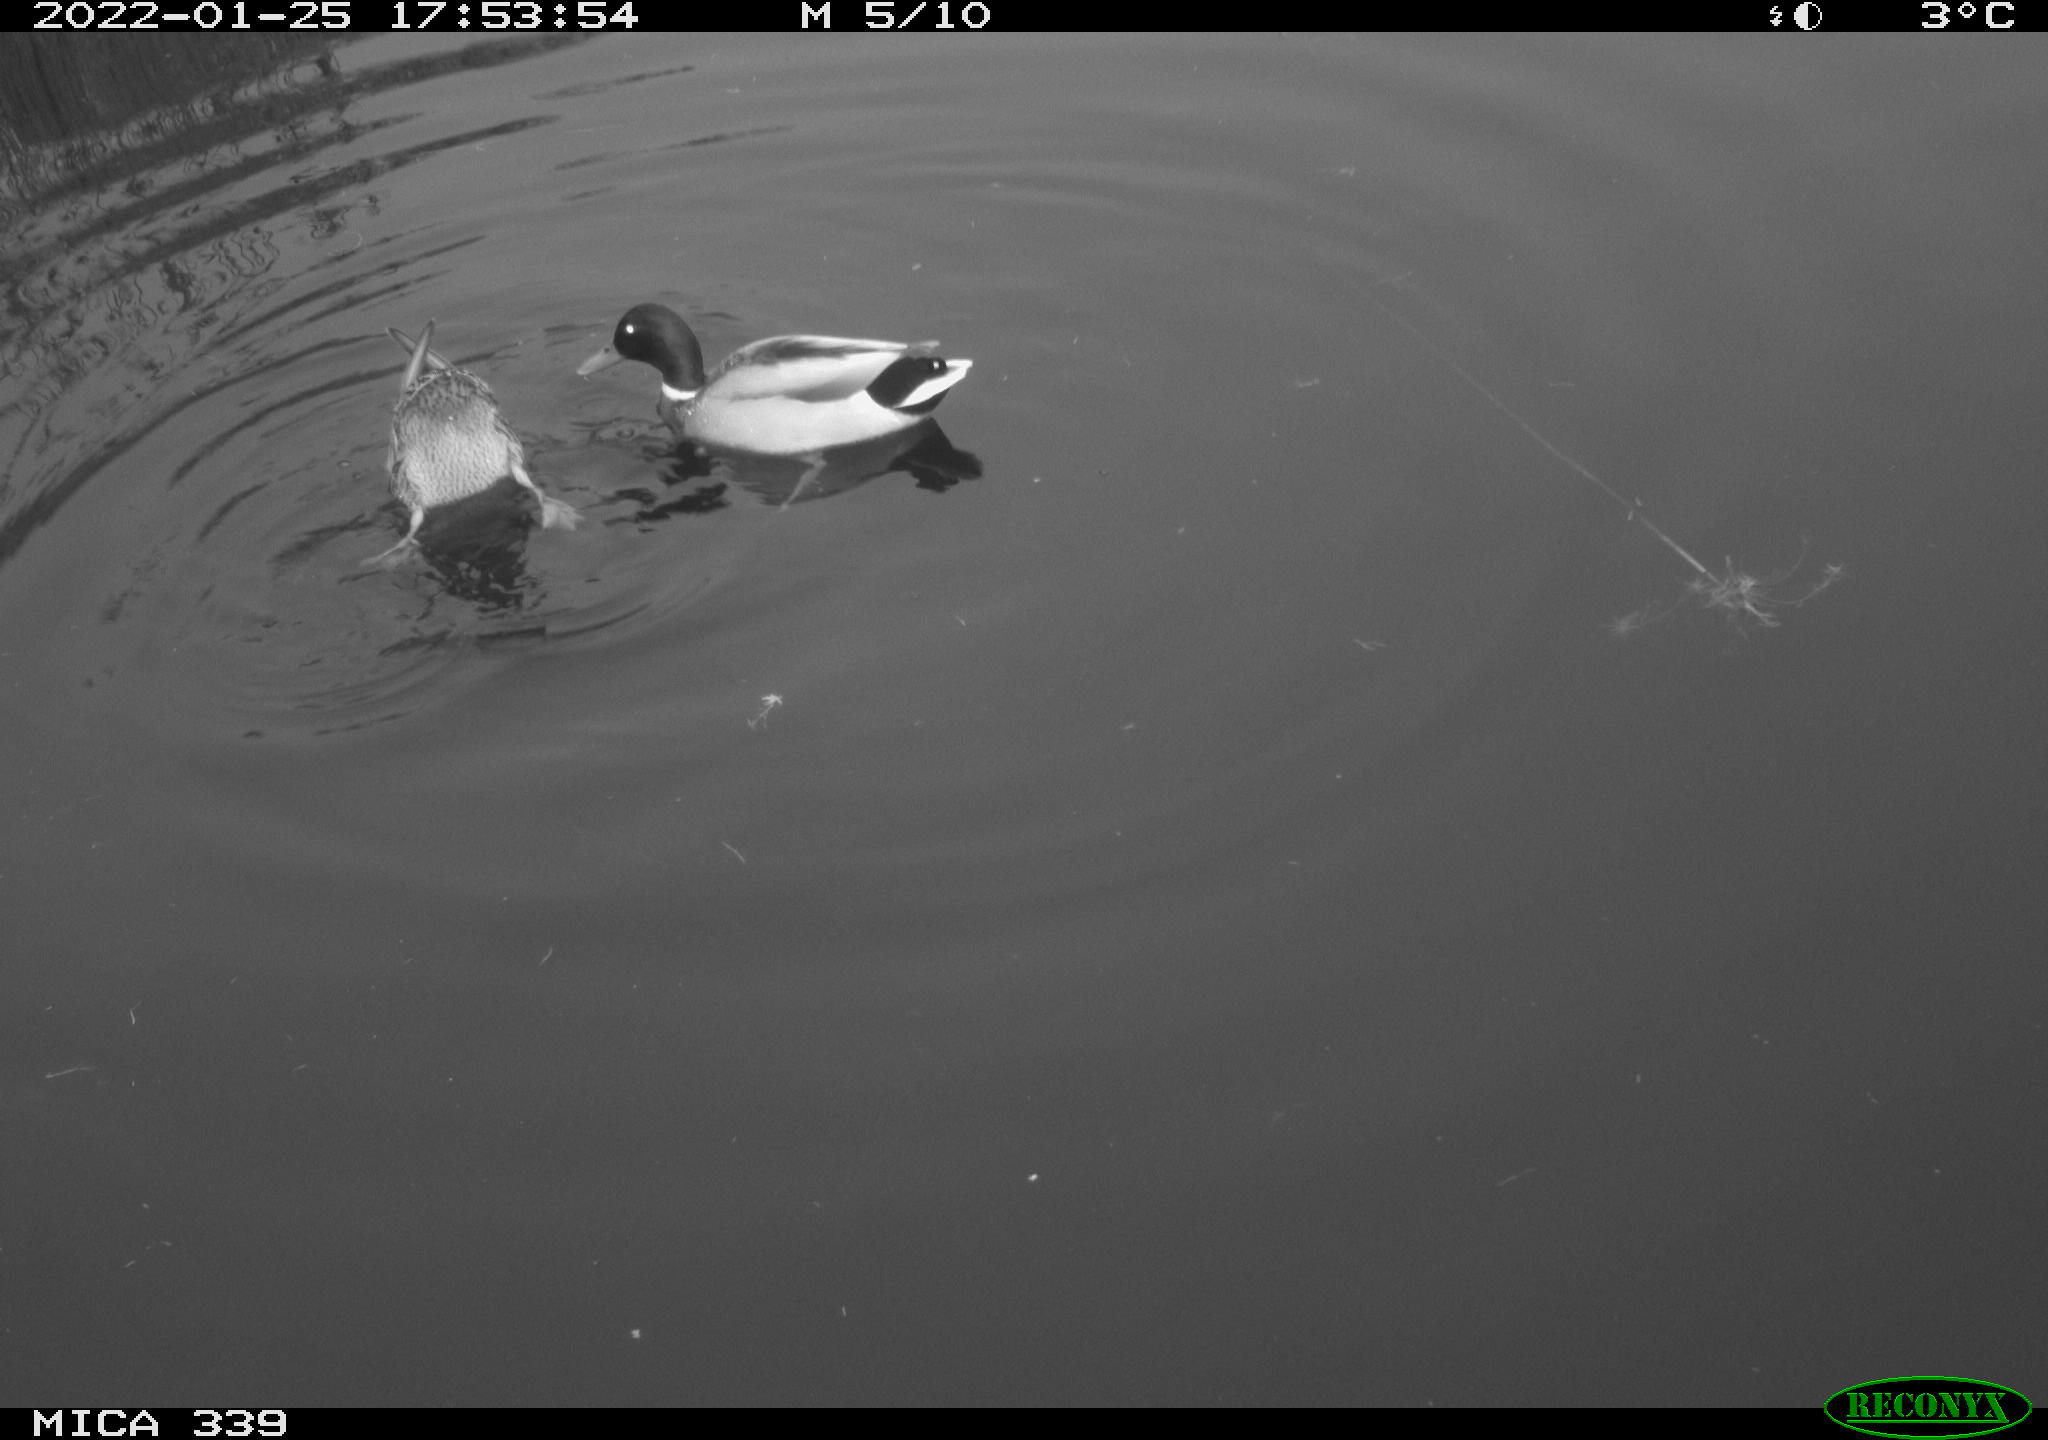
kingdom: Animalia
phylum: Chordata
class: Aves
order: Anseriformes
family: Anatidae
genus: Anas
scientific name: Anas platyrhynchos
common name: Mallard
